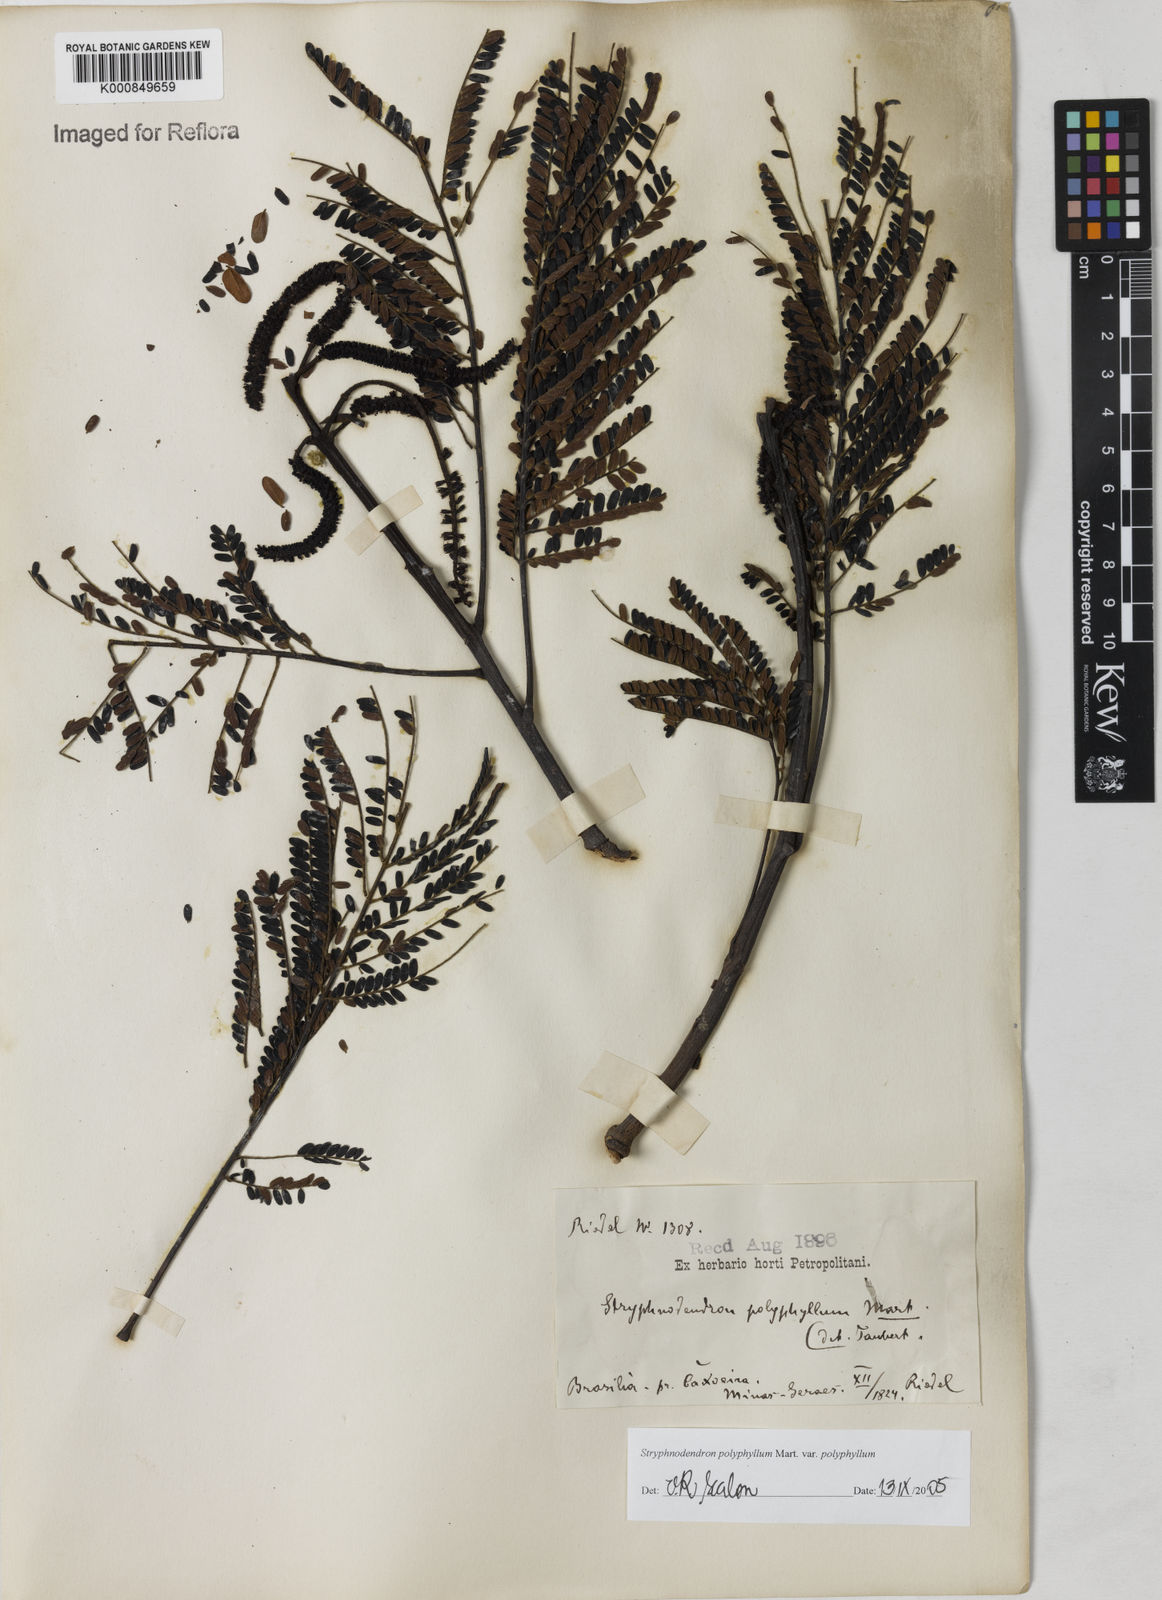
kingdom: Plantae
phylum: Tracheophyta
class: Magnoliopsida
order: Fabales
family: Fabaceae
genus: Stryphnodendron
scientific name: Stryphnodendron polyphyllum
